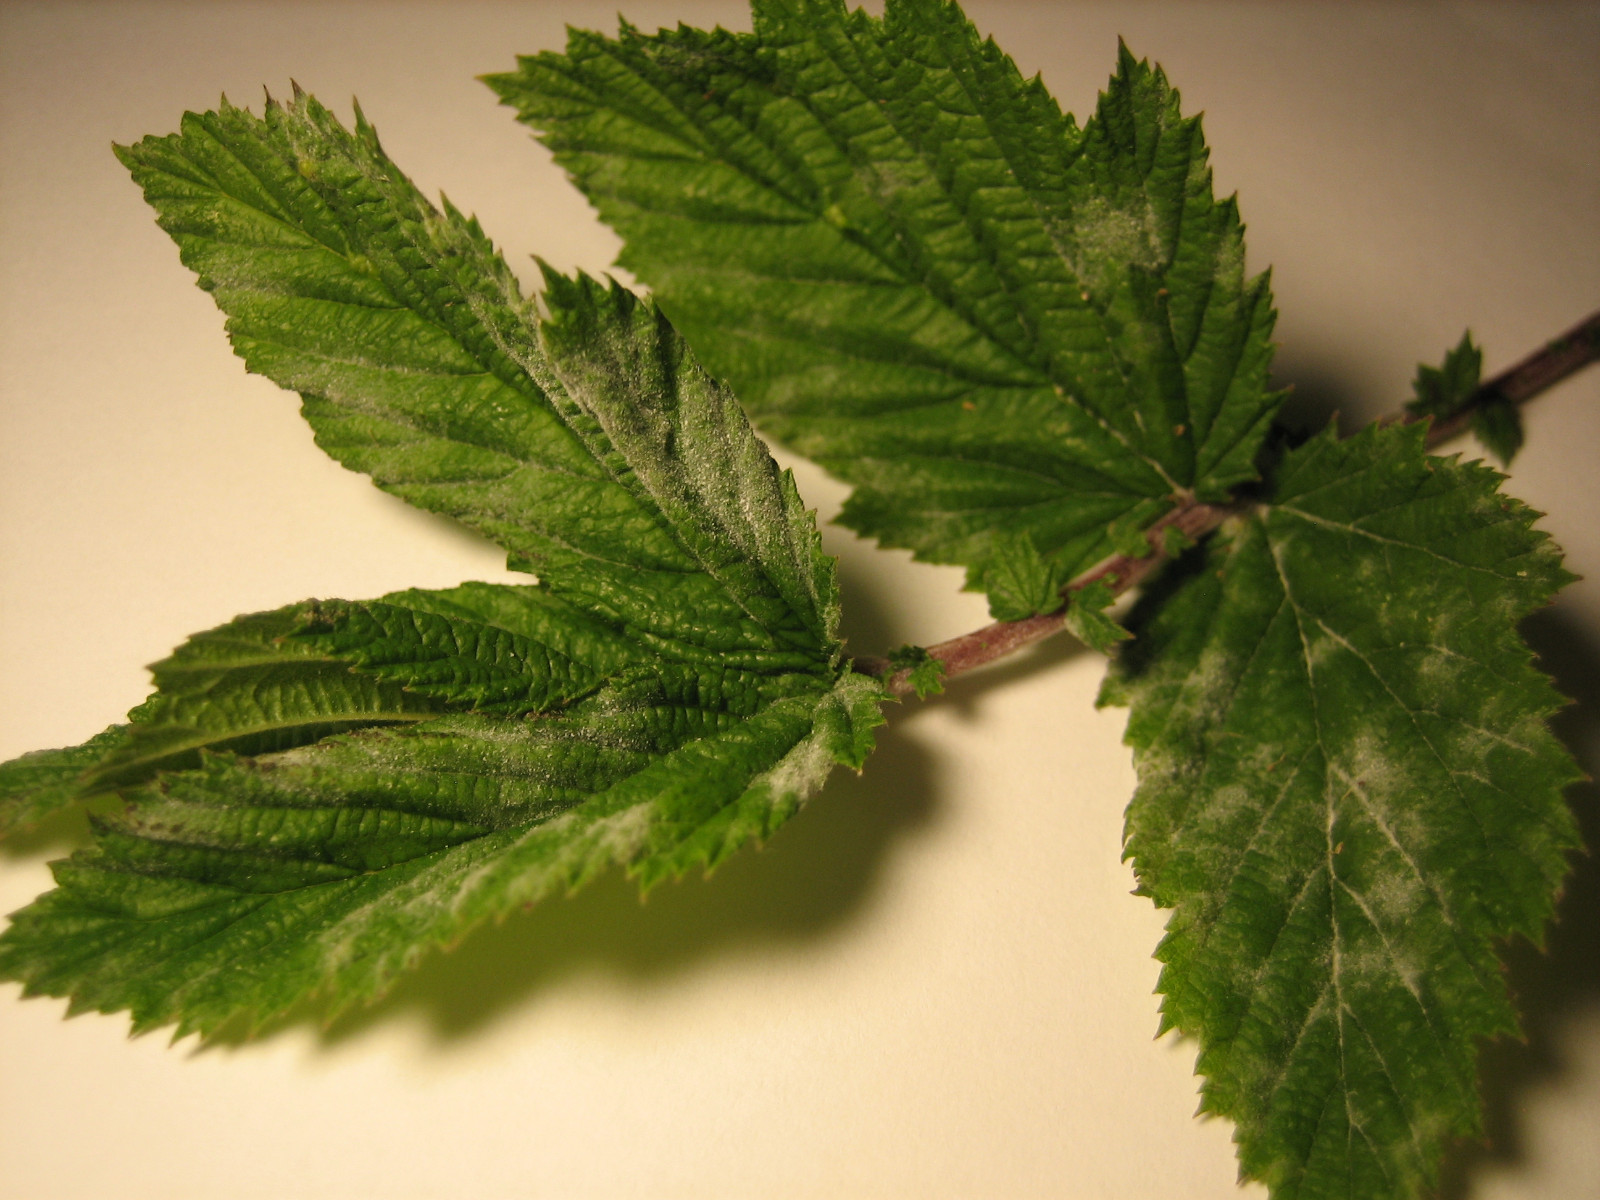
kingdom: Fungi
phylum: Ascomycota
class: Leotiomycetes
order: Helotiales
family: Erysiphaceae
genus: Podosphaera
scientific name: Podosphaera filipendulae
